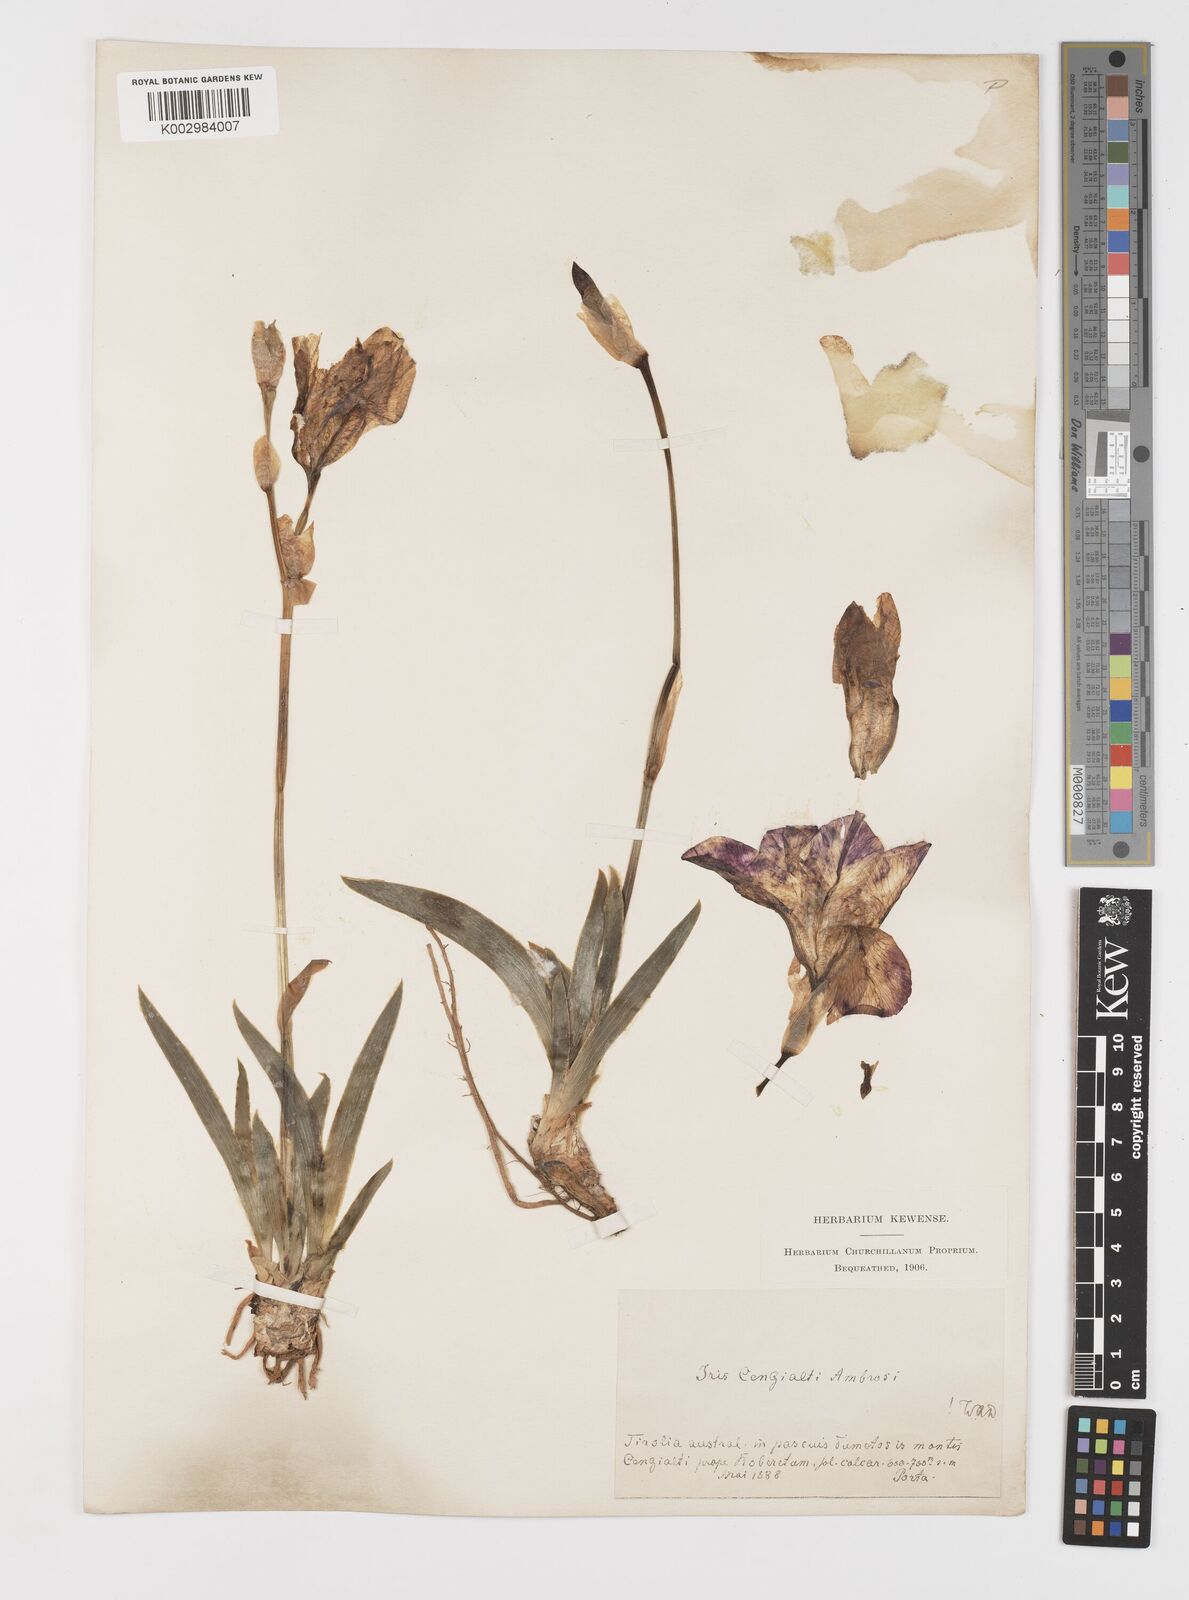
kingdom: Plantae
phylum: Tracheophyta
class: Liliopsida
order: Asparagales
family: Iridaceae
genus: Iris
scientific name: Iris pallida
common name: Sweet iris
